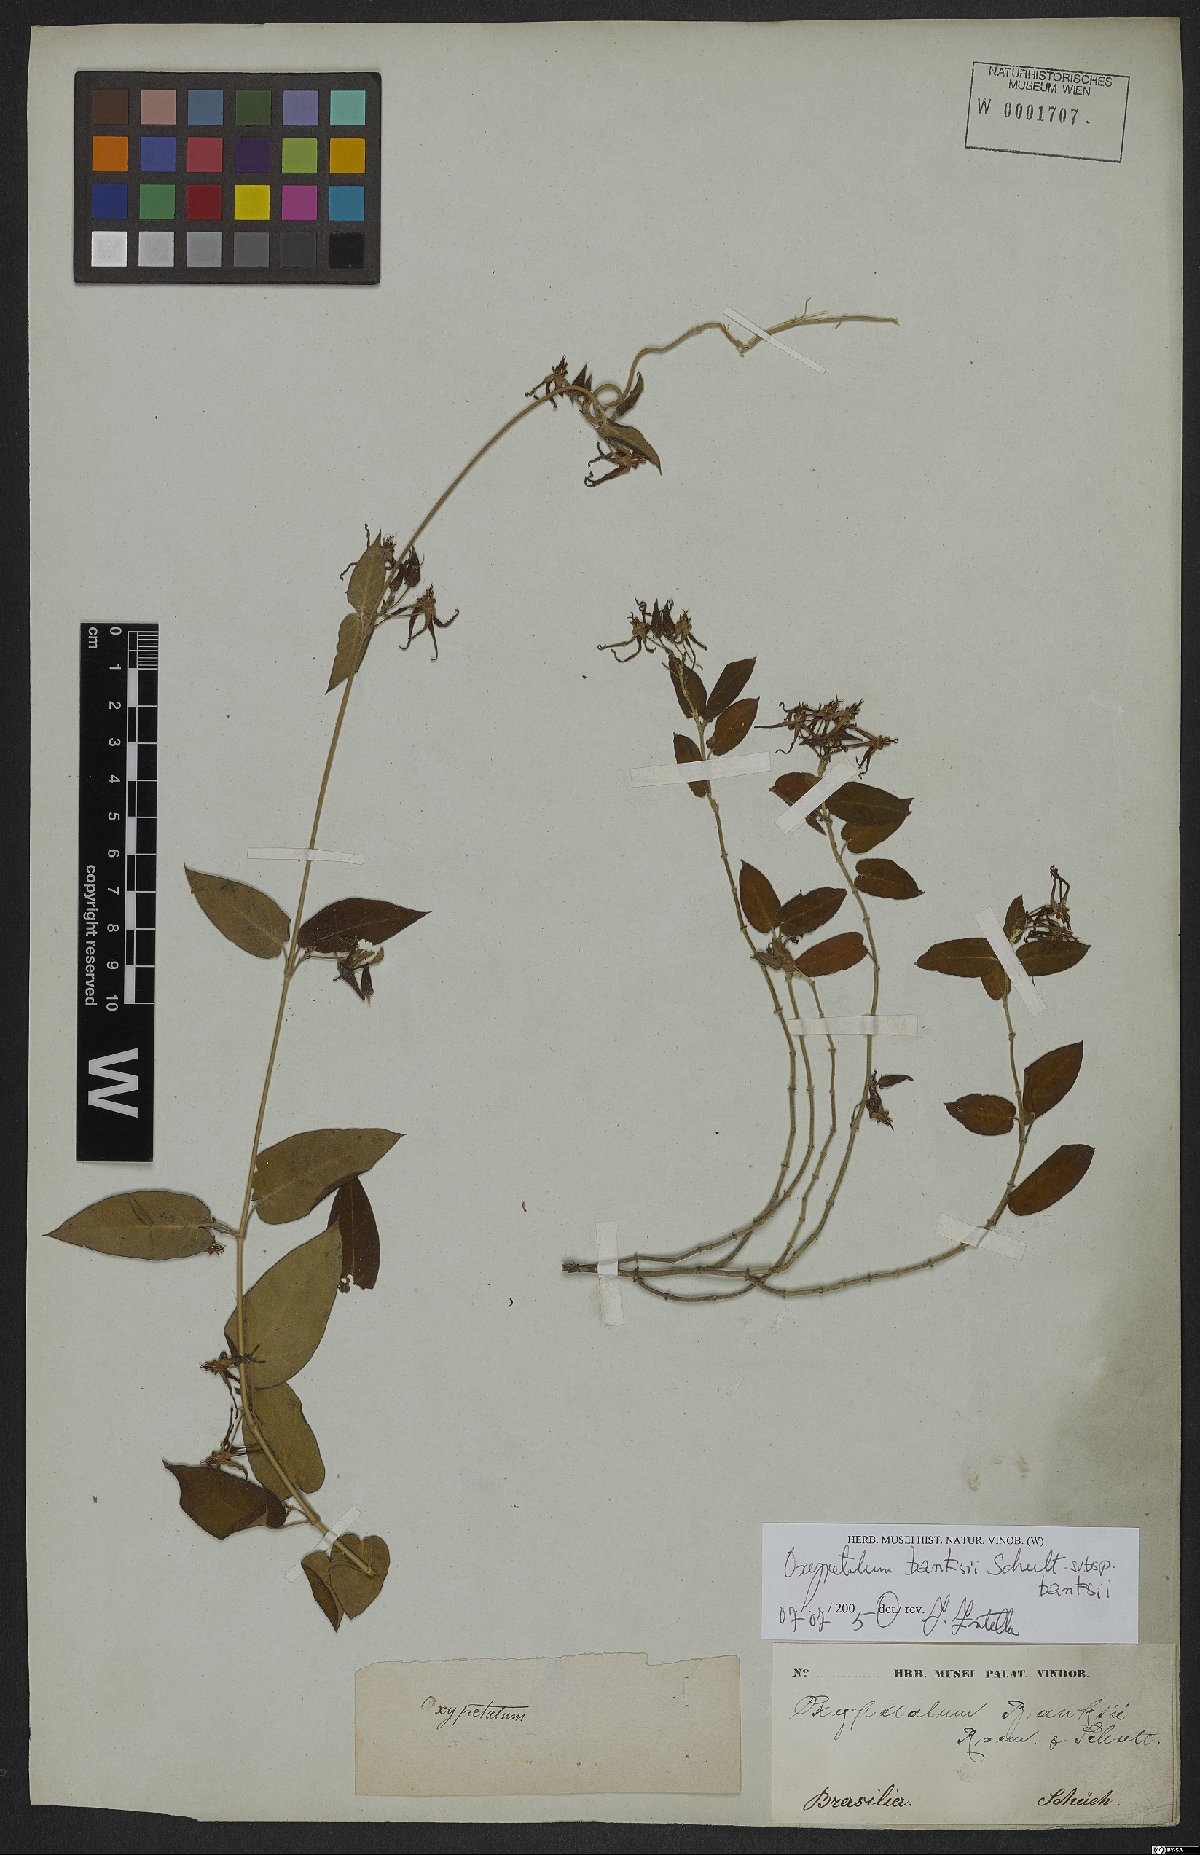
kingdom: Plantae
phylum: Tracheophyta
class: Magnoliopsida
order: Gentianales
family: Apocynaceae
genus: Oxypetalum
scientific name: Oxypetalum banksii
